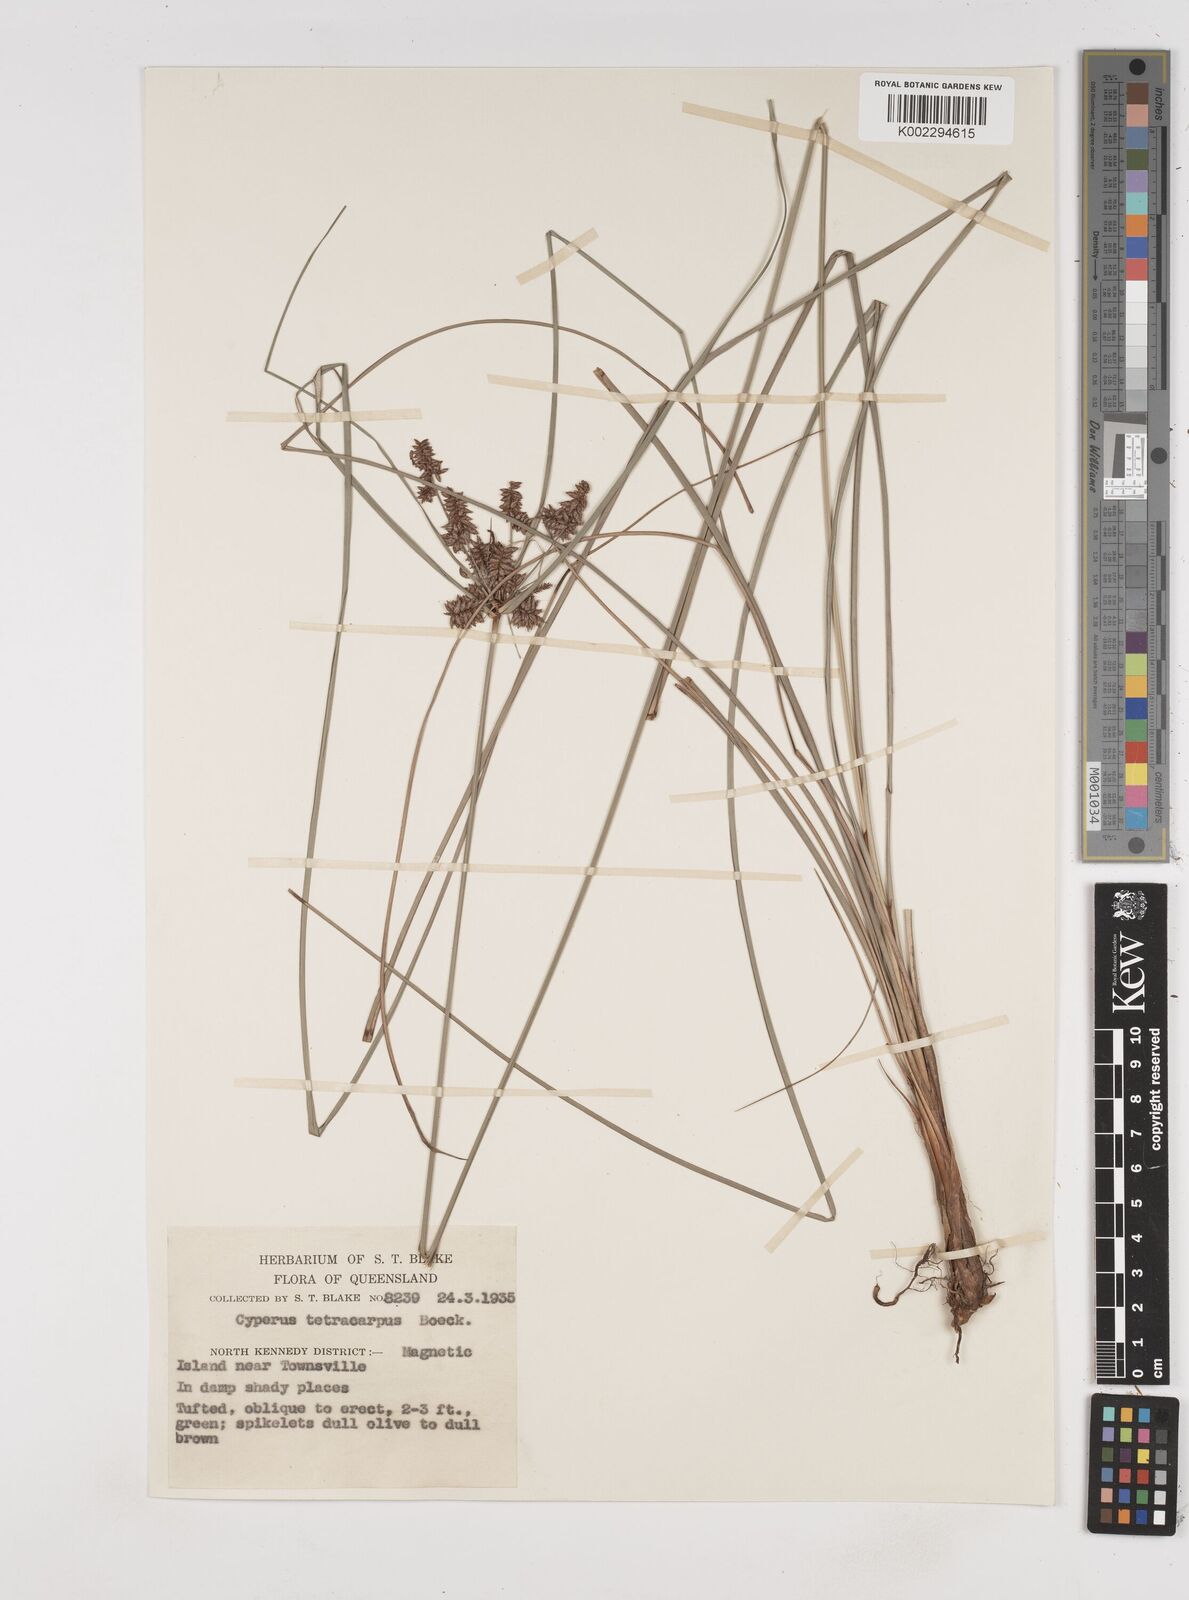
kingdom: Plantae
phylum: Tracheophyta
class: Liliopsida
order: Poales
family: Cyperaceae
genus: Cyperus
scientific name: Cyperus tetracarpus
